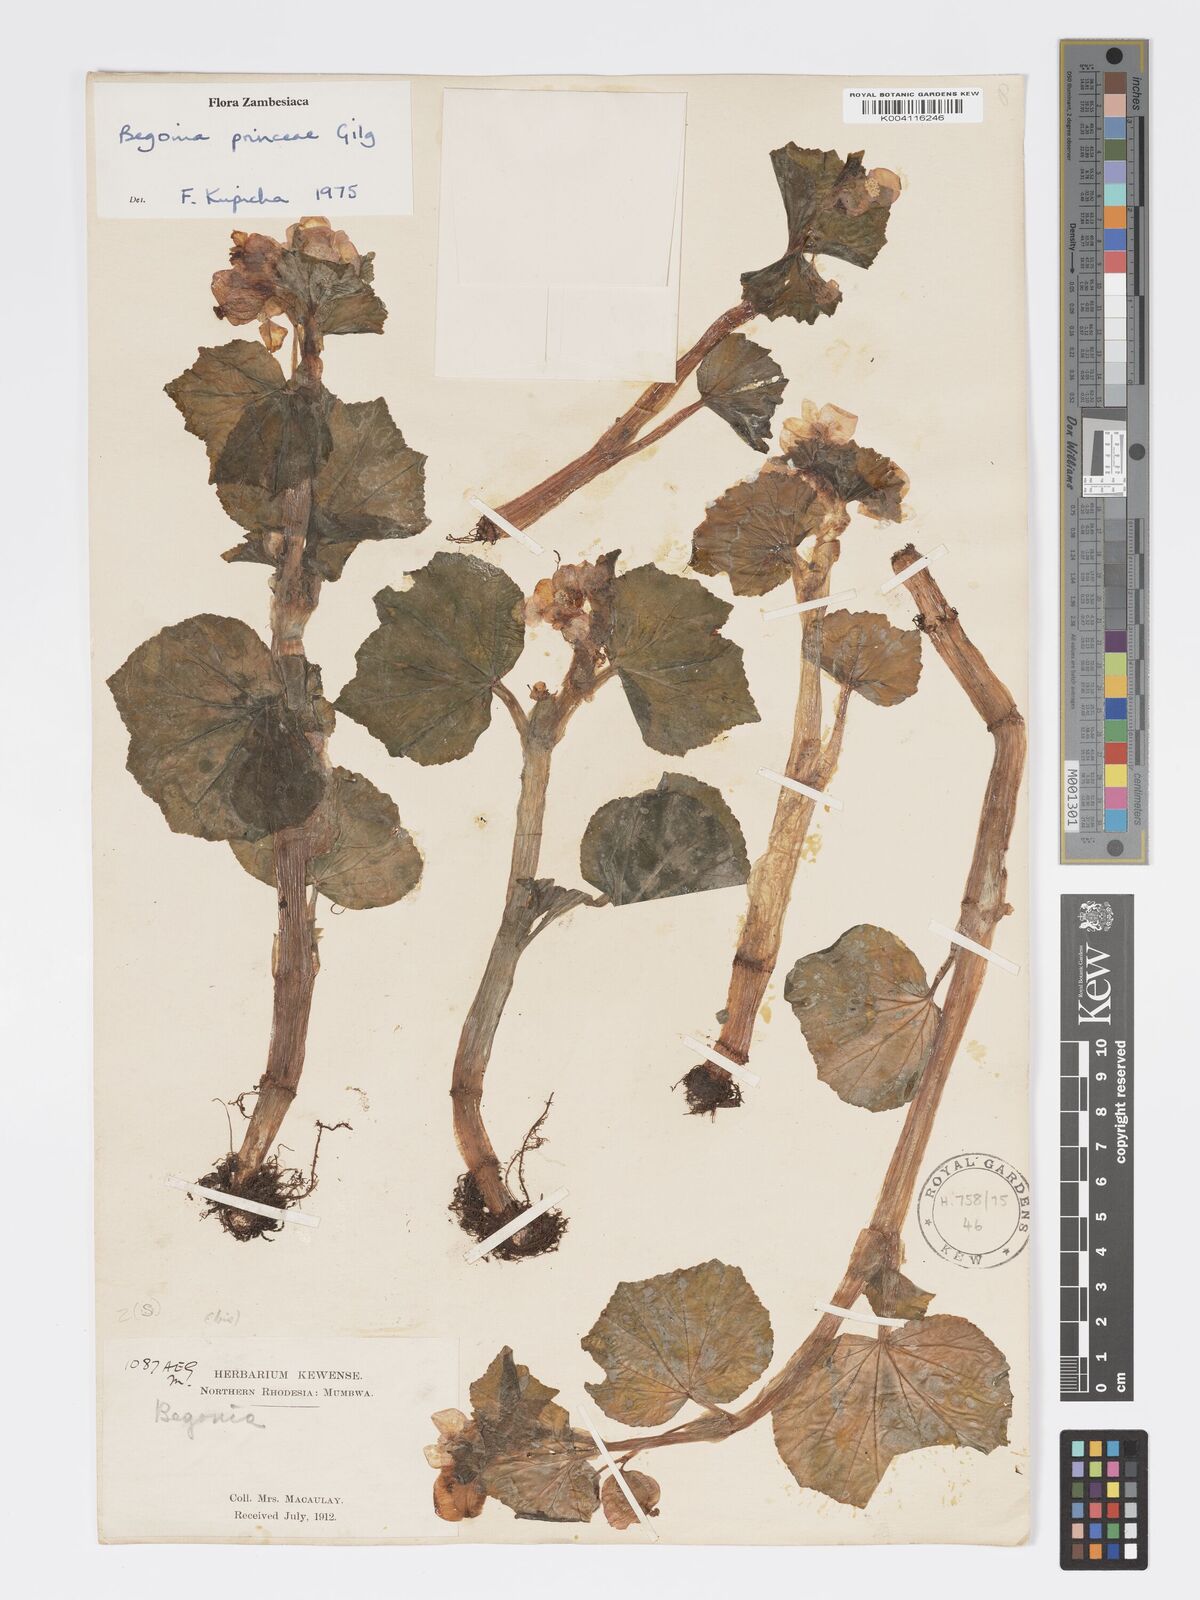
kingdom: Plantae
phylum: Tracheophyta
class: Magnoliopsida
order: Cucurbitales
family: Begoniaceae
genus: Begonia
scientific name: Begonia princeae
